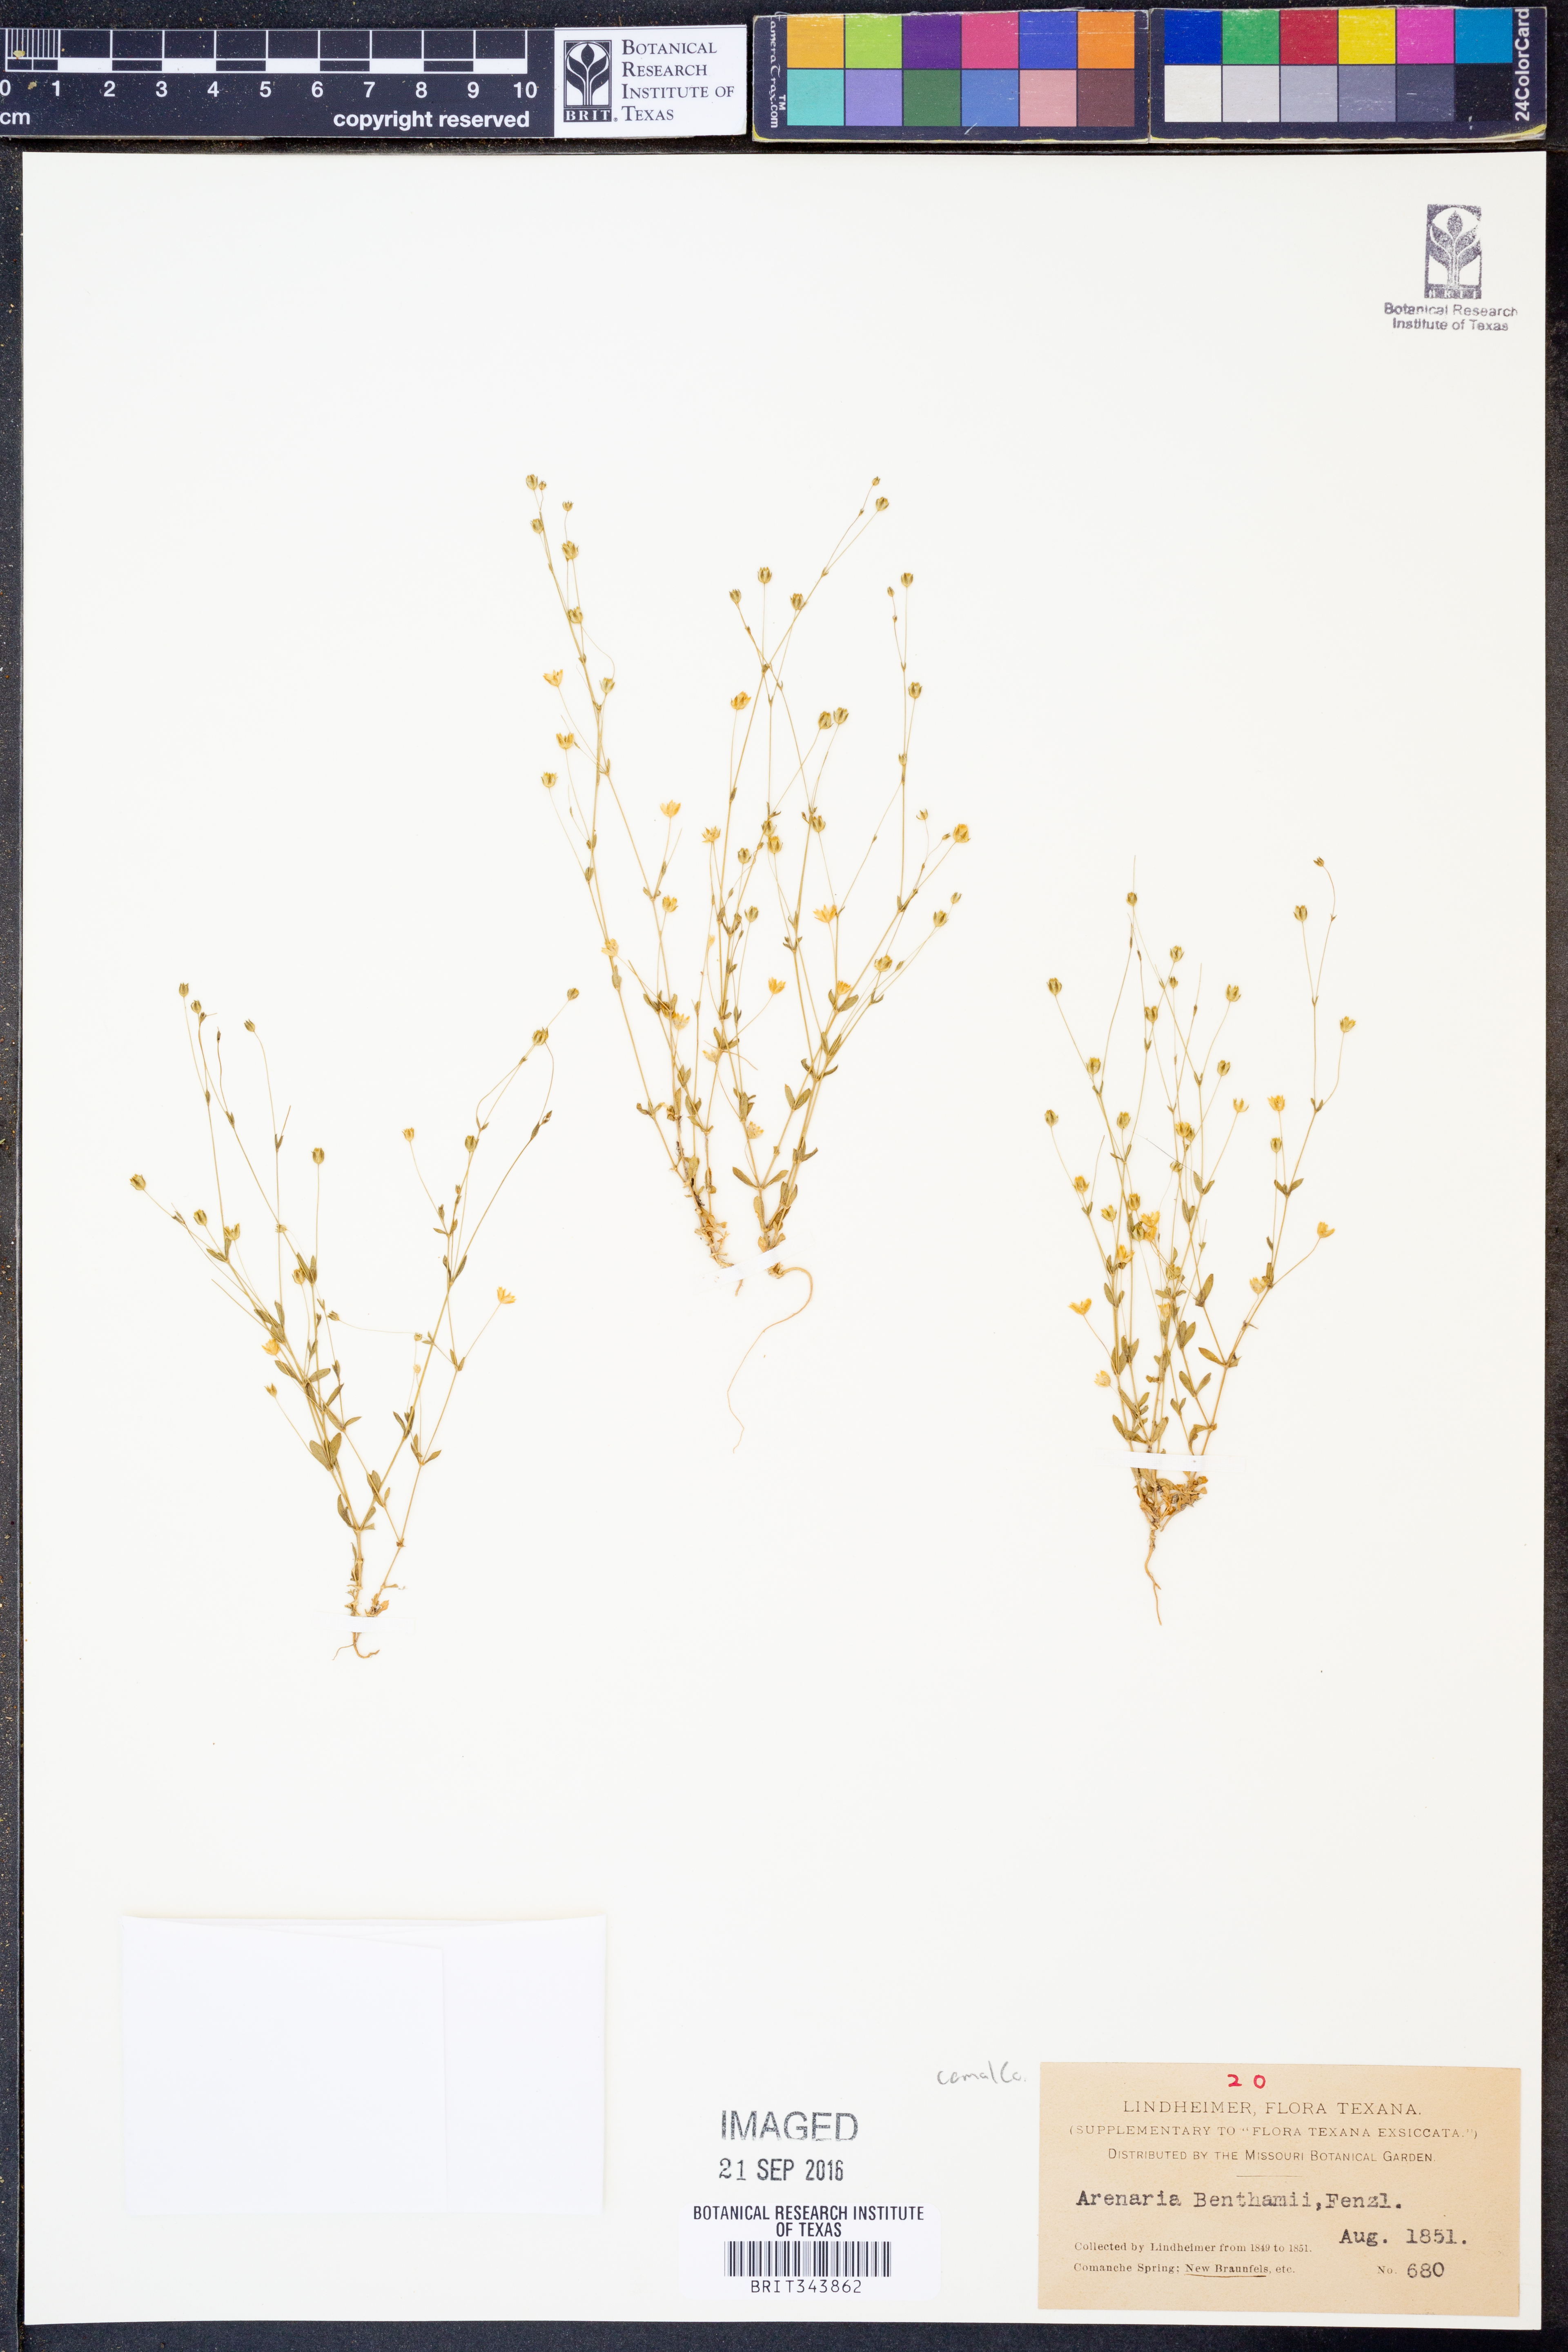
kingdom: Plantae
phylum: Tracheophyta
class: Magnoliopsida
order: Caryophyllales
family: Caryophyllaceae
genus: Arenaria
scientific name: Arenaria benthamii
